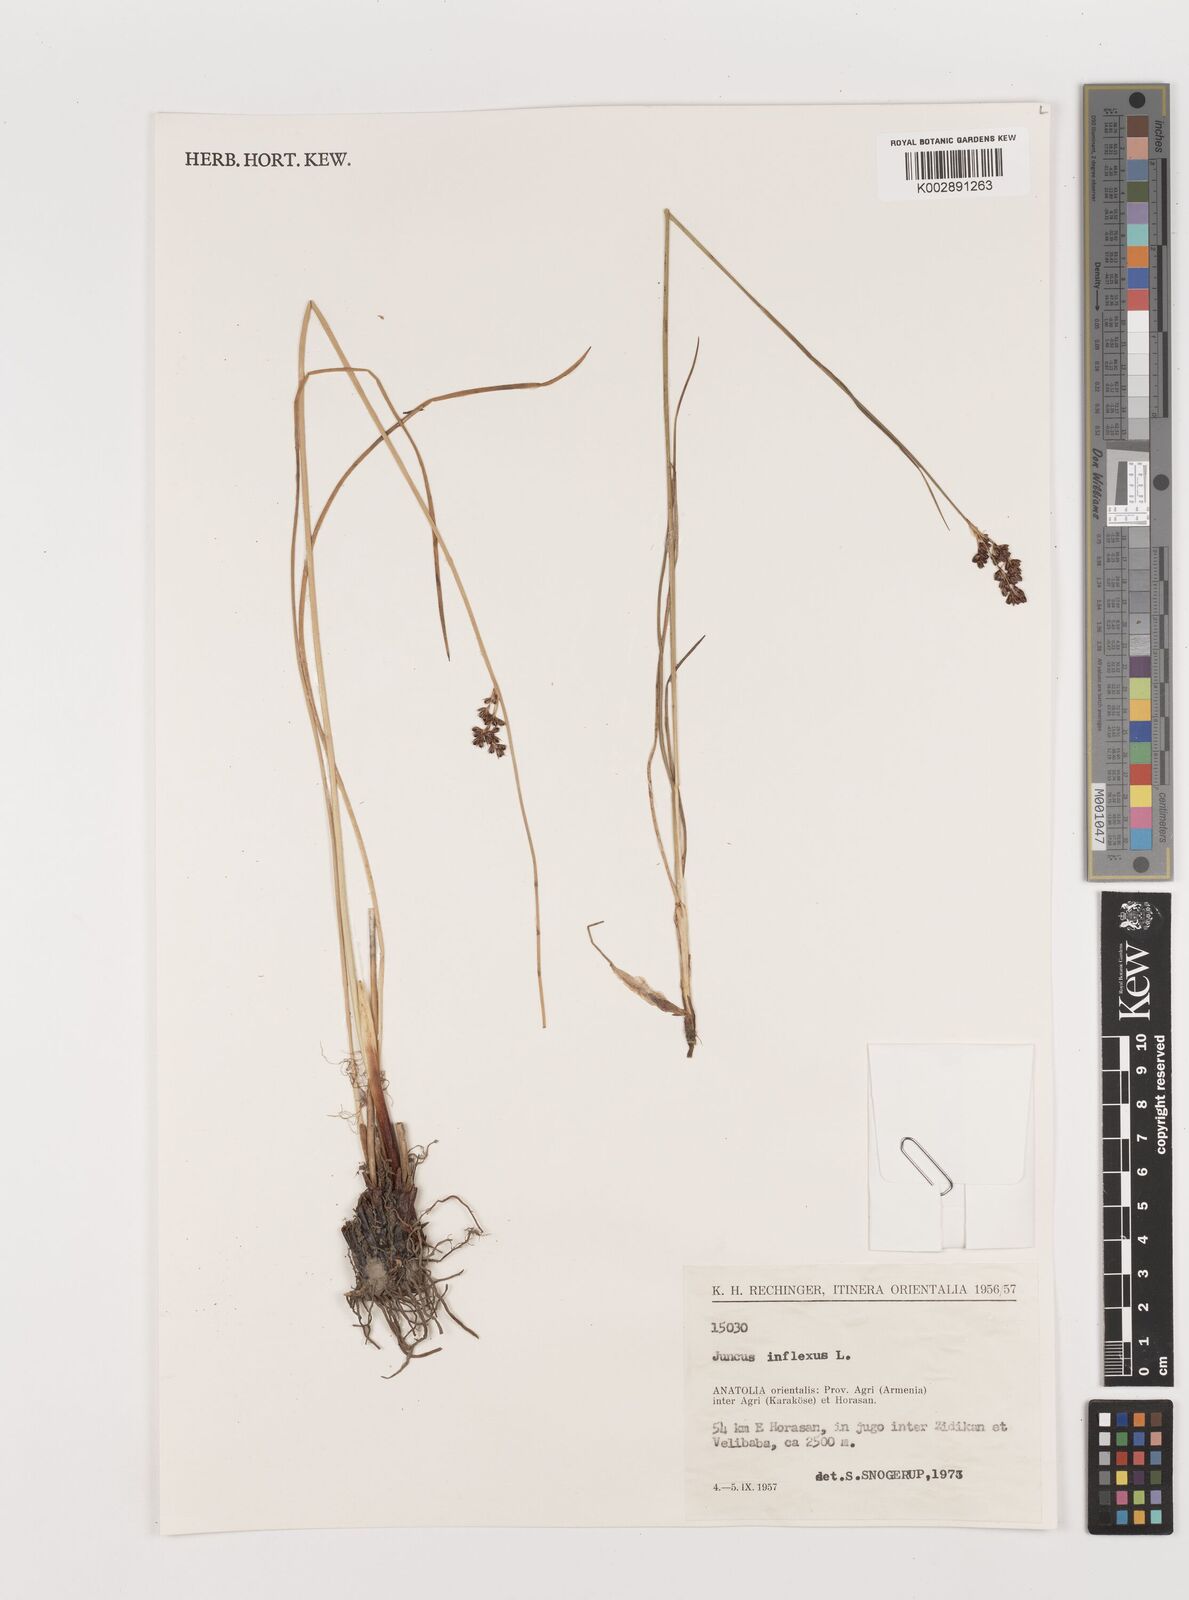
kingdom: Plantae
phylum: Tracheophyta
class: Liliopsida
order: Poales
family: Juncaceae
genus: Juncus
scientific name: Juncus inflexus
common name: Hard rush
